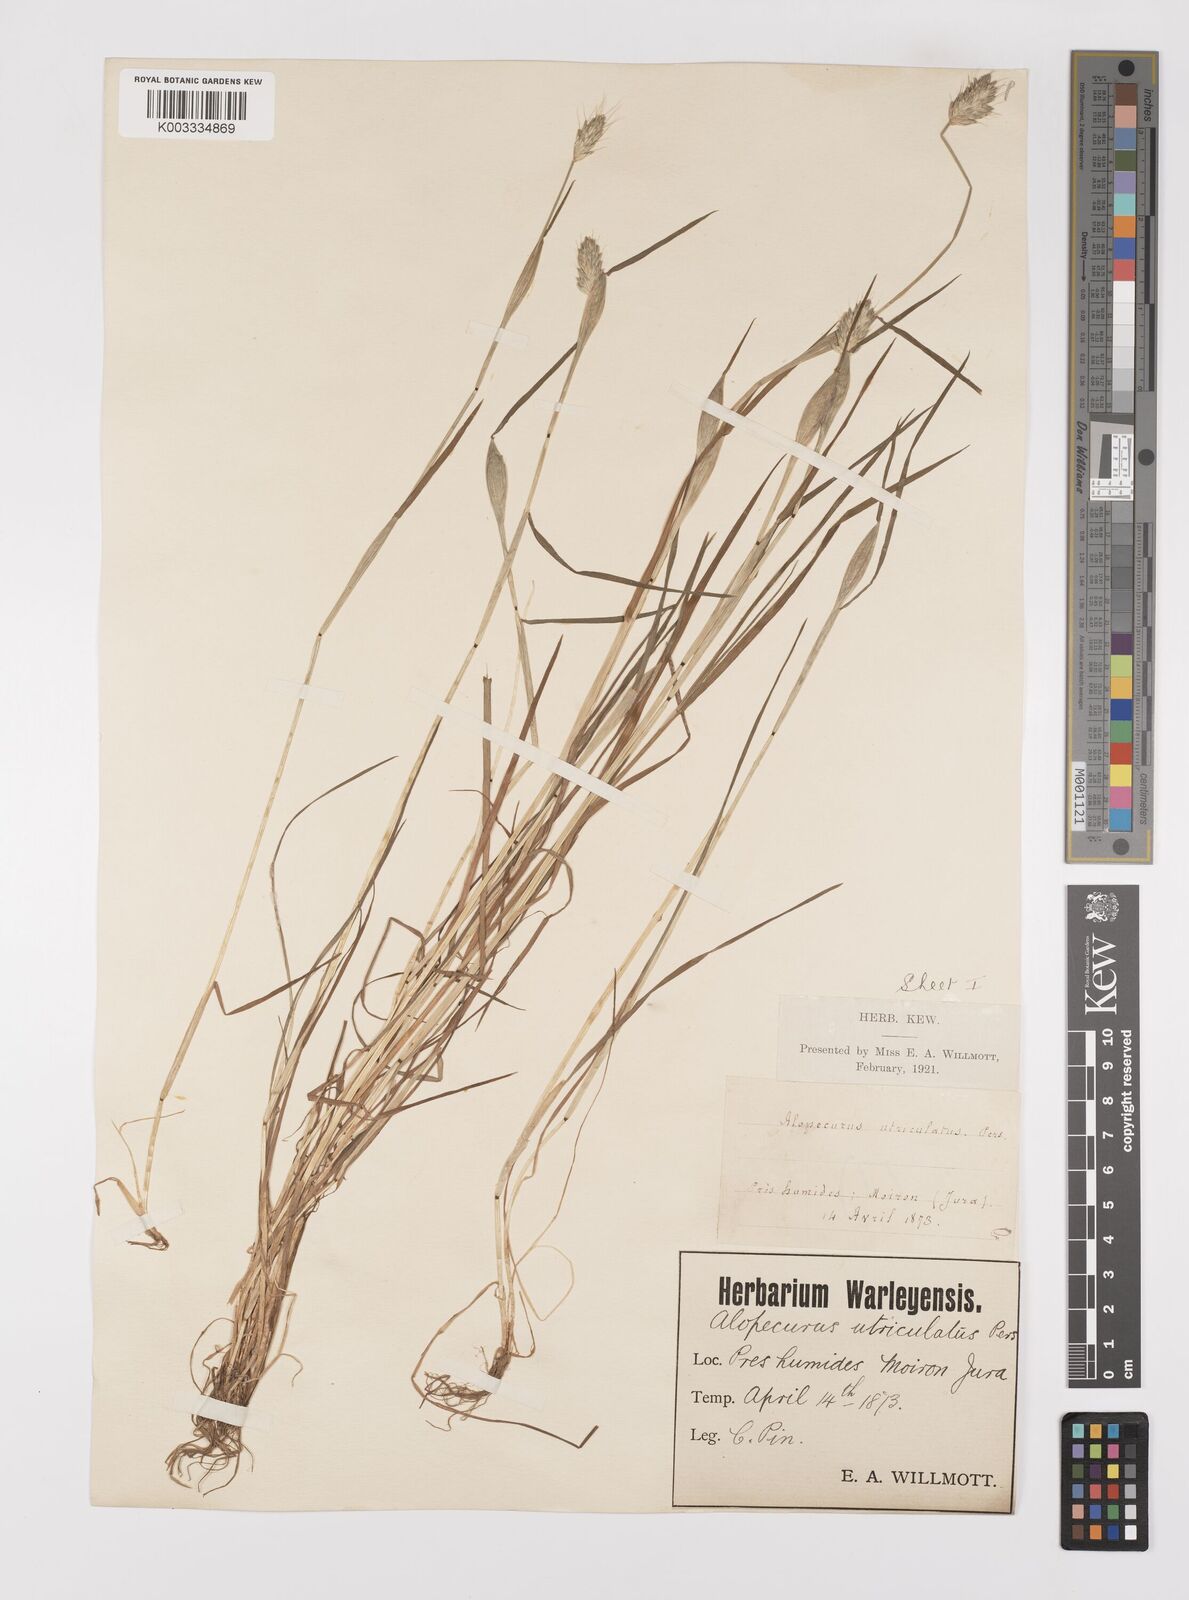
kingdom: Plantae
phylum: Tracheophyta
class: Liliopsida
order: Poales
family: Poaceae
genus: Alopecurus
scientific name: Alopecurus rendlei
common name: Rendle's meadow foxtail
